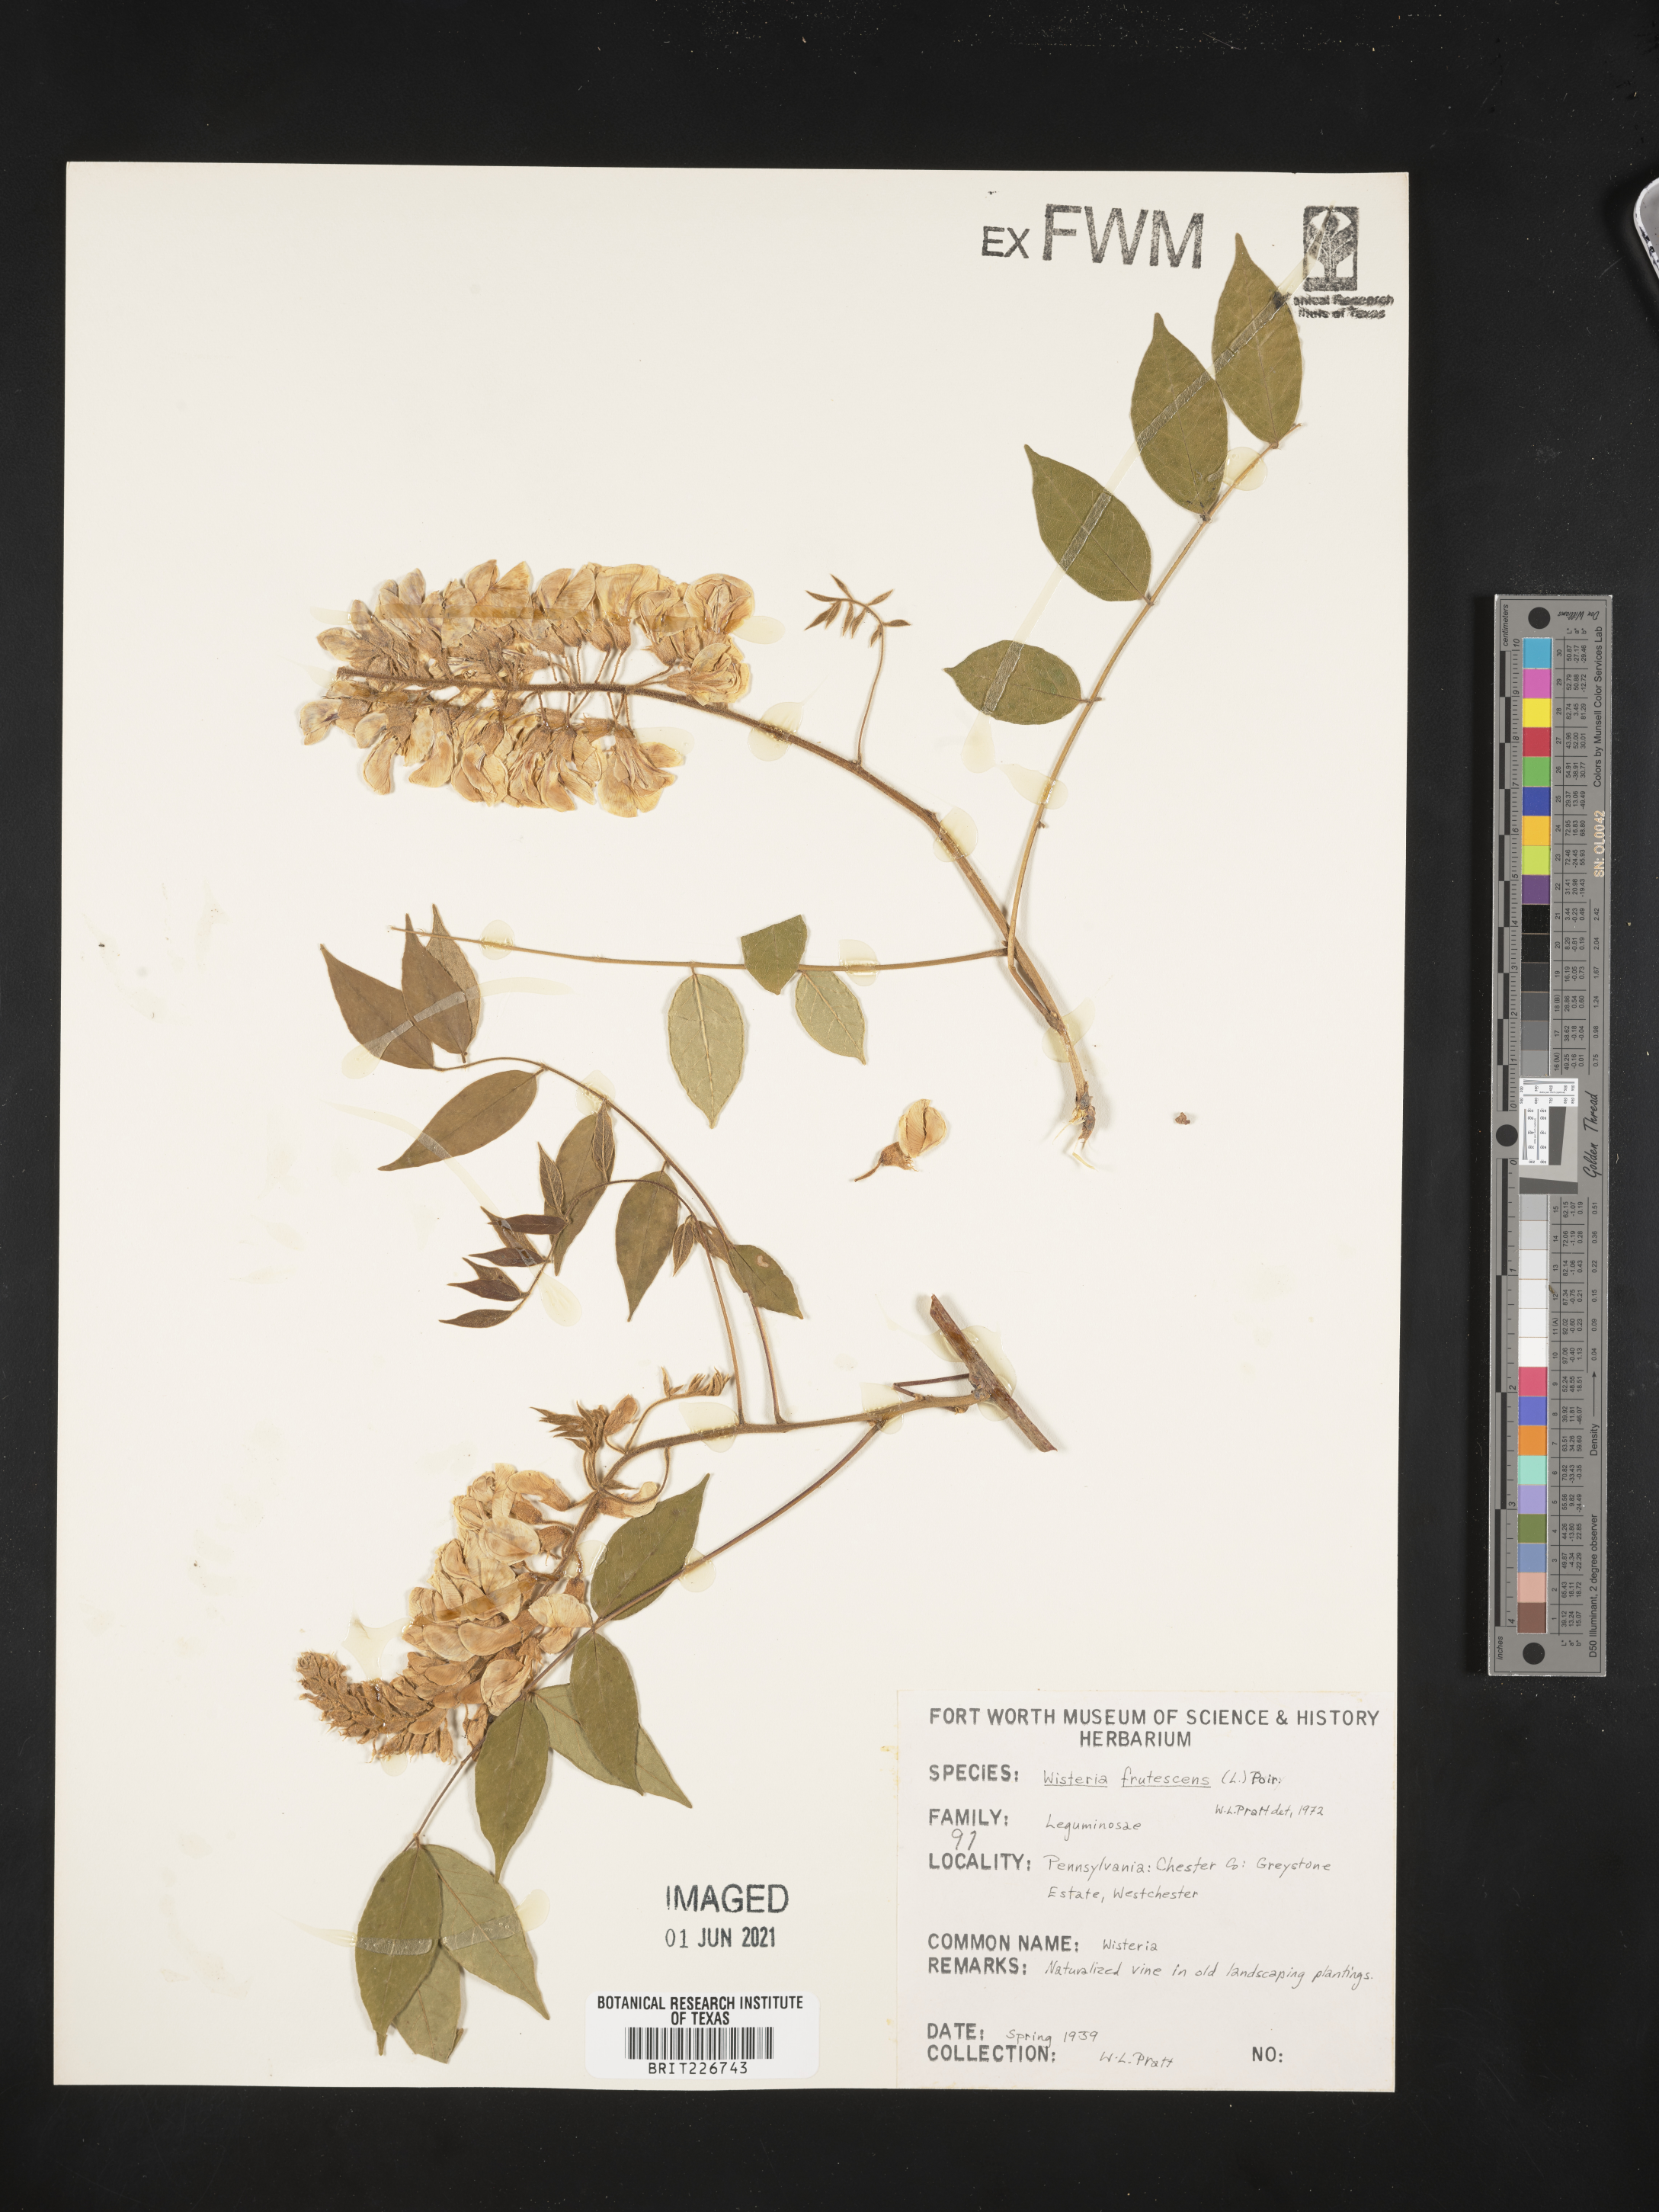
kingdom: Plantae
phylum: Tracheophyta
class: Magnoliopsida
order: Fabales
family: Fabaceae
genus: Wisteria
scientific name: Wisteria frutescens
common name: American wisteria
